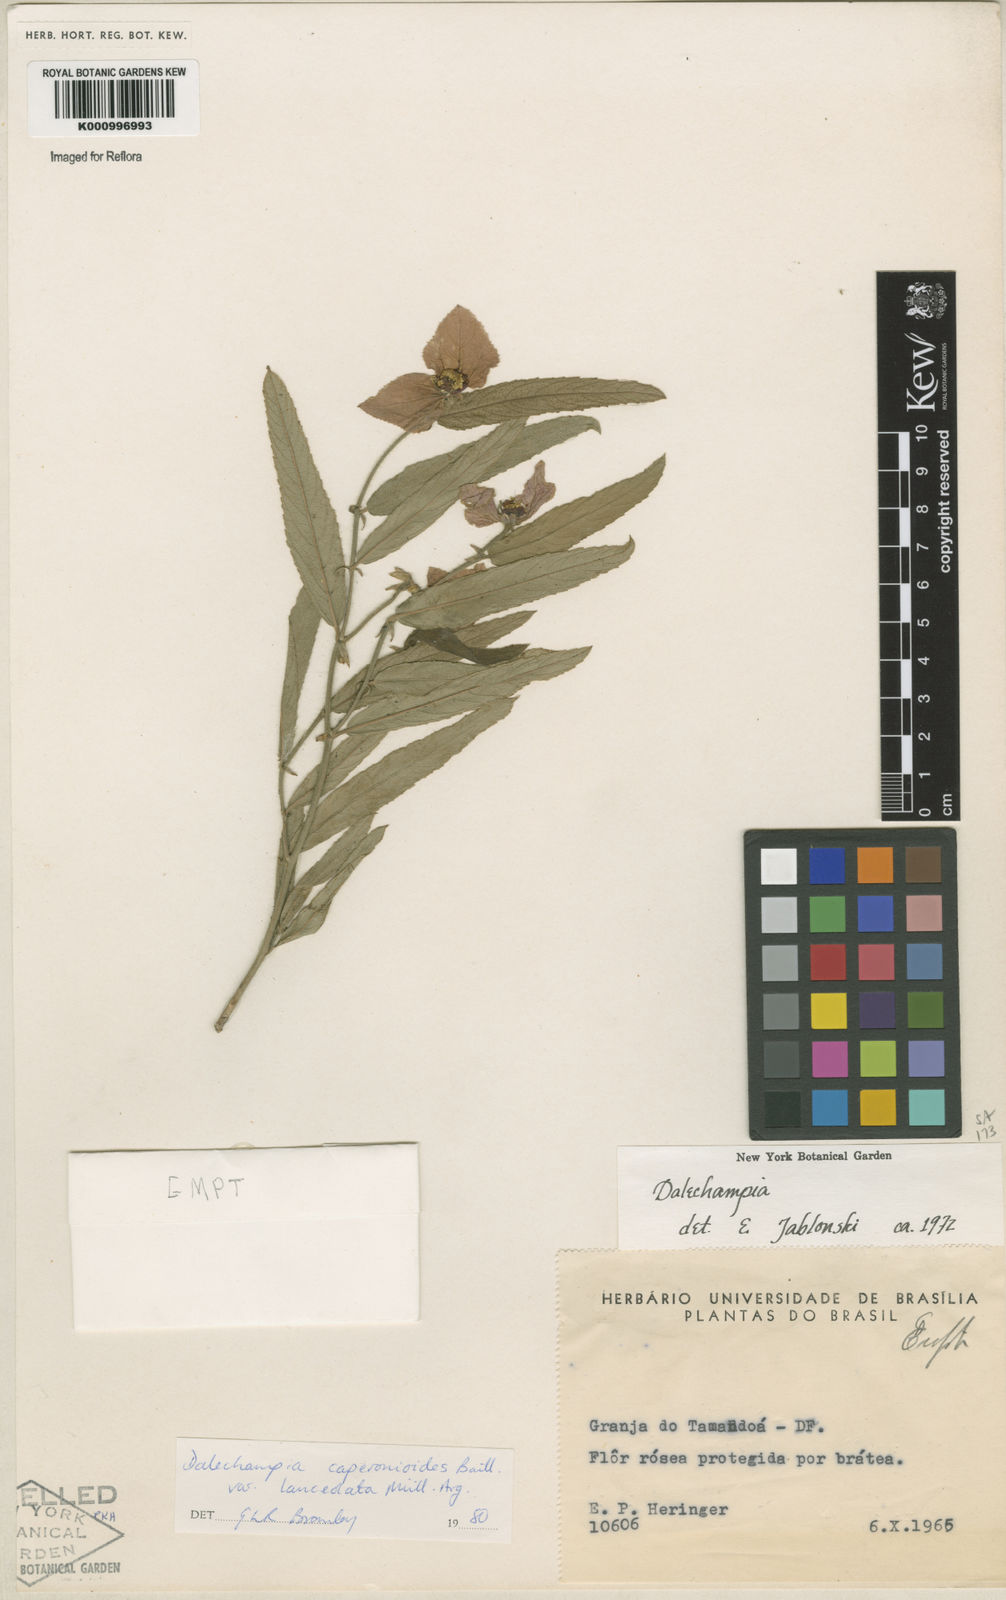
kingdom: Plantae
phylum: Tracheophyta
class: Magnoliopsida
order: Malpighiales
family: Euphorbiaceae
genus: Dalechampia
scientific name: Dalechampia caperonioides
